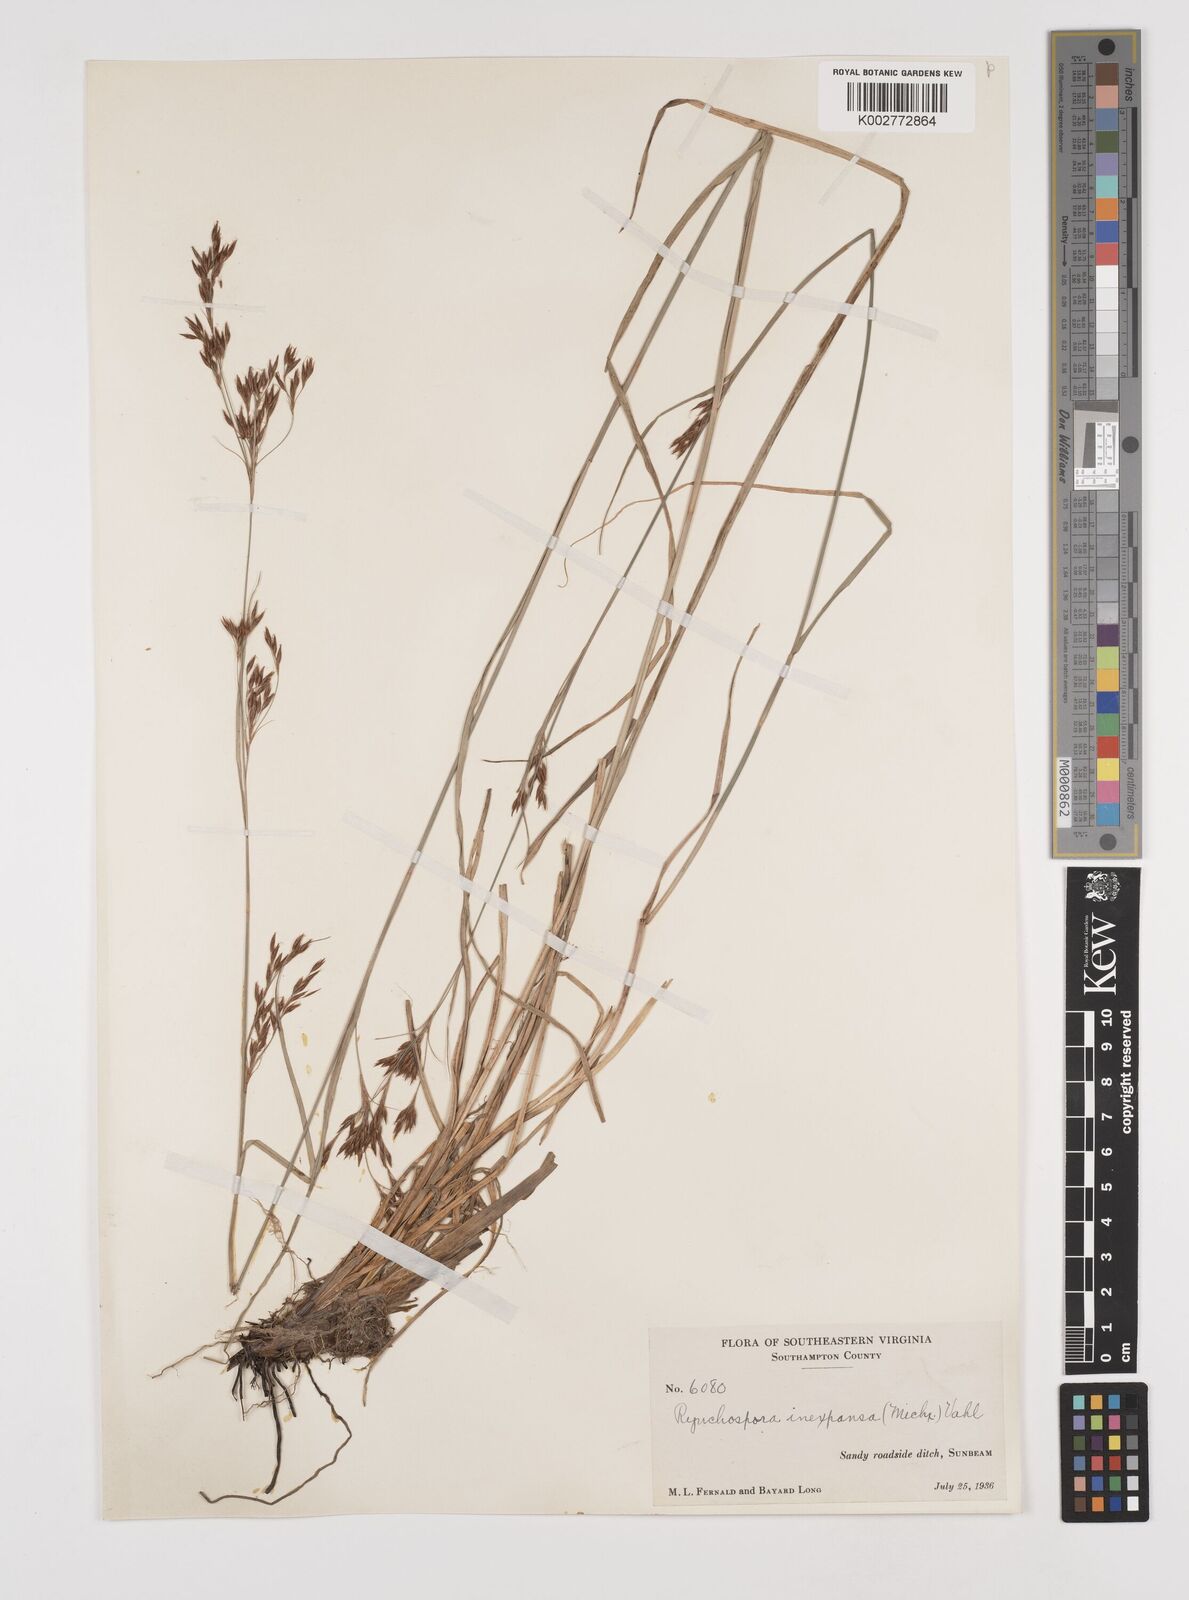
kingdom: Plantae
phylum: Tracheophyta
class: Liliopsida
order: Poales
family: Cyperaceae
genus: Rhynchospora
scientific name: Rhynchospora inexpansa
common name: Nodding beaksedge
